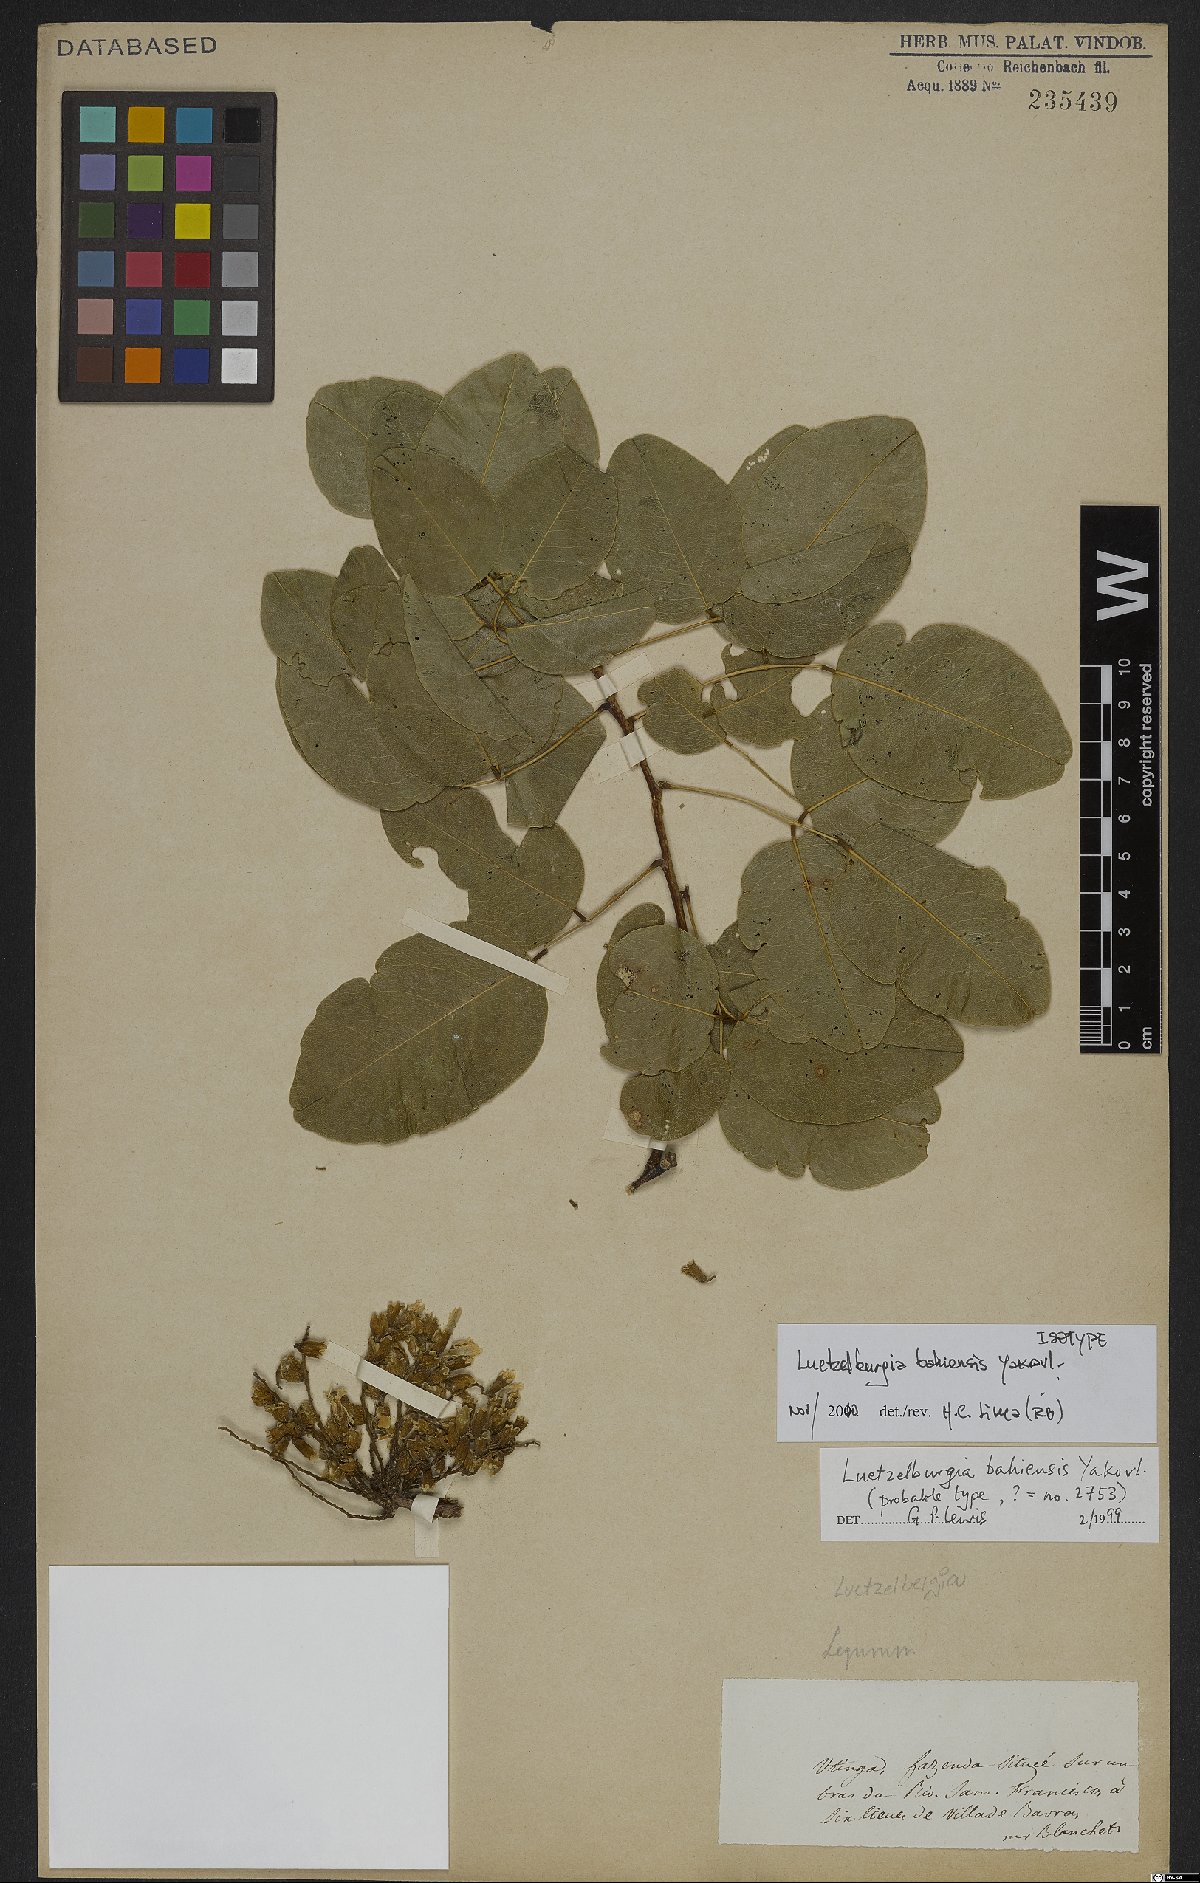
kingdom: Plantae
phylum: Tracheophyta
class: Magnoliopsida
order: Fabales
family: Fabaceae
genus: Luetzelburgia
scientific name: Luetzelburgia bahiensis
